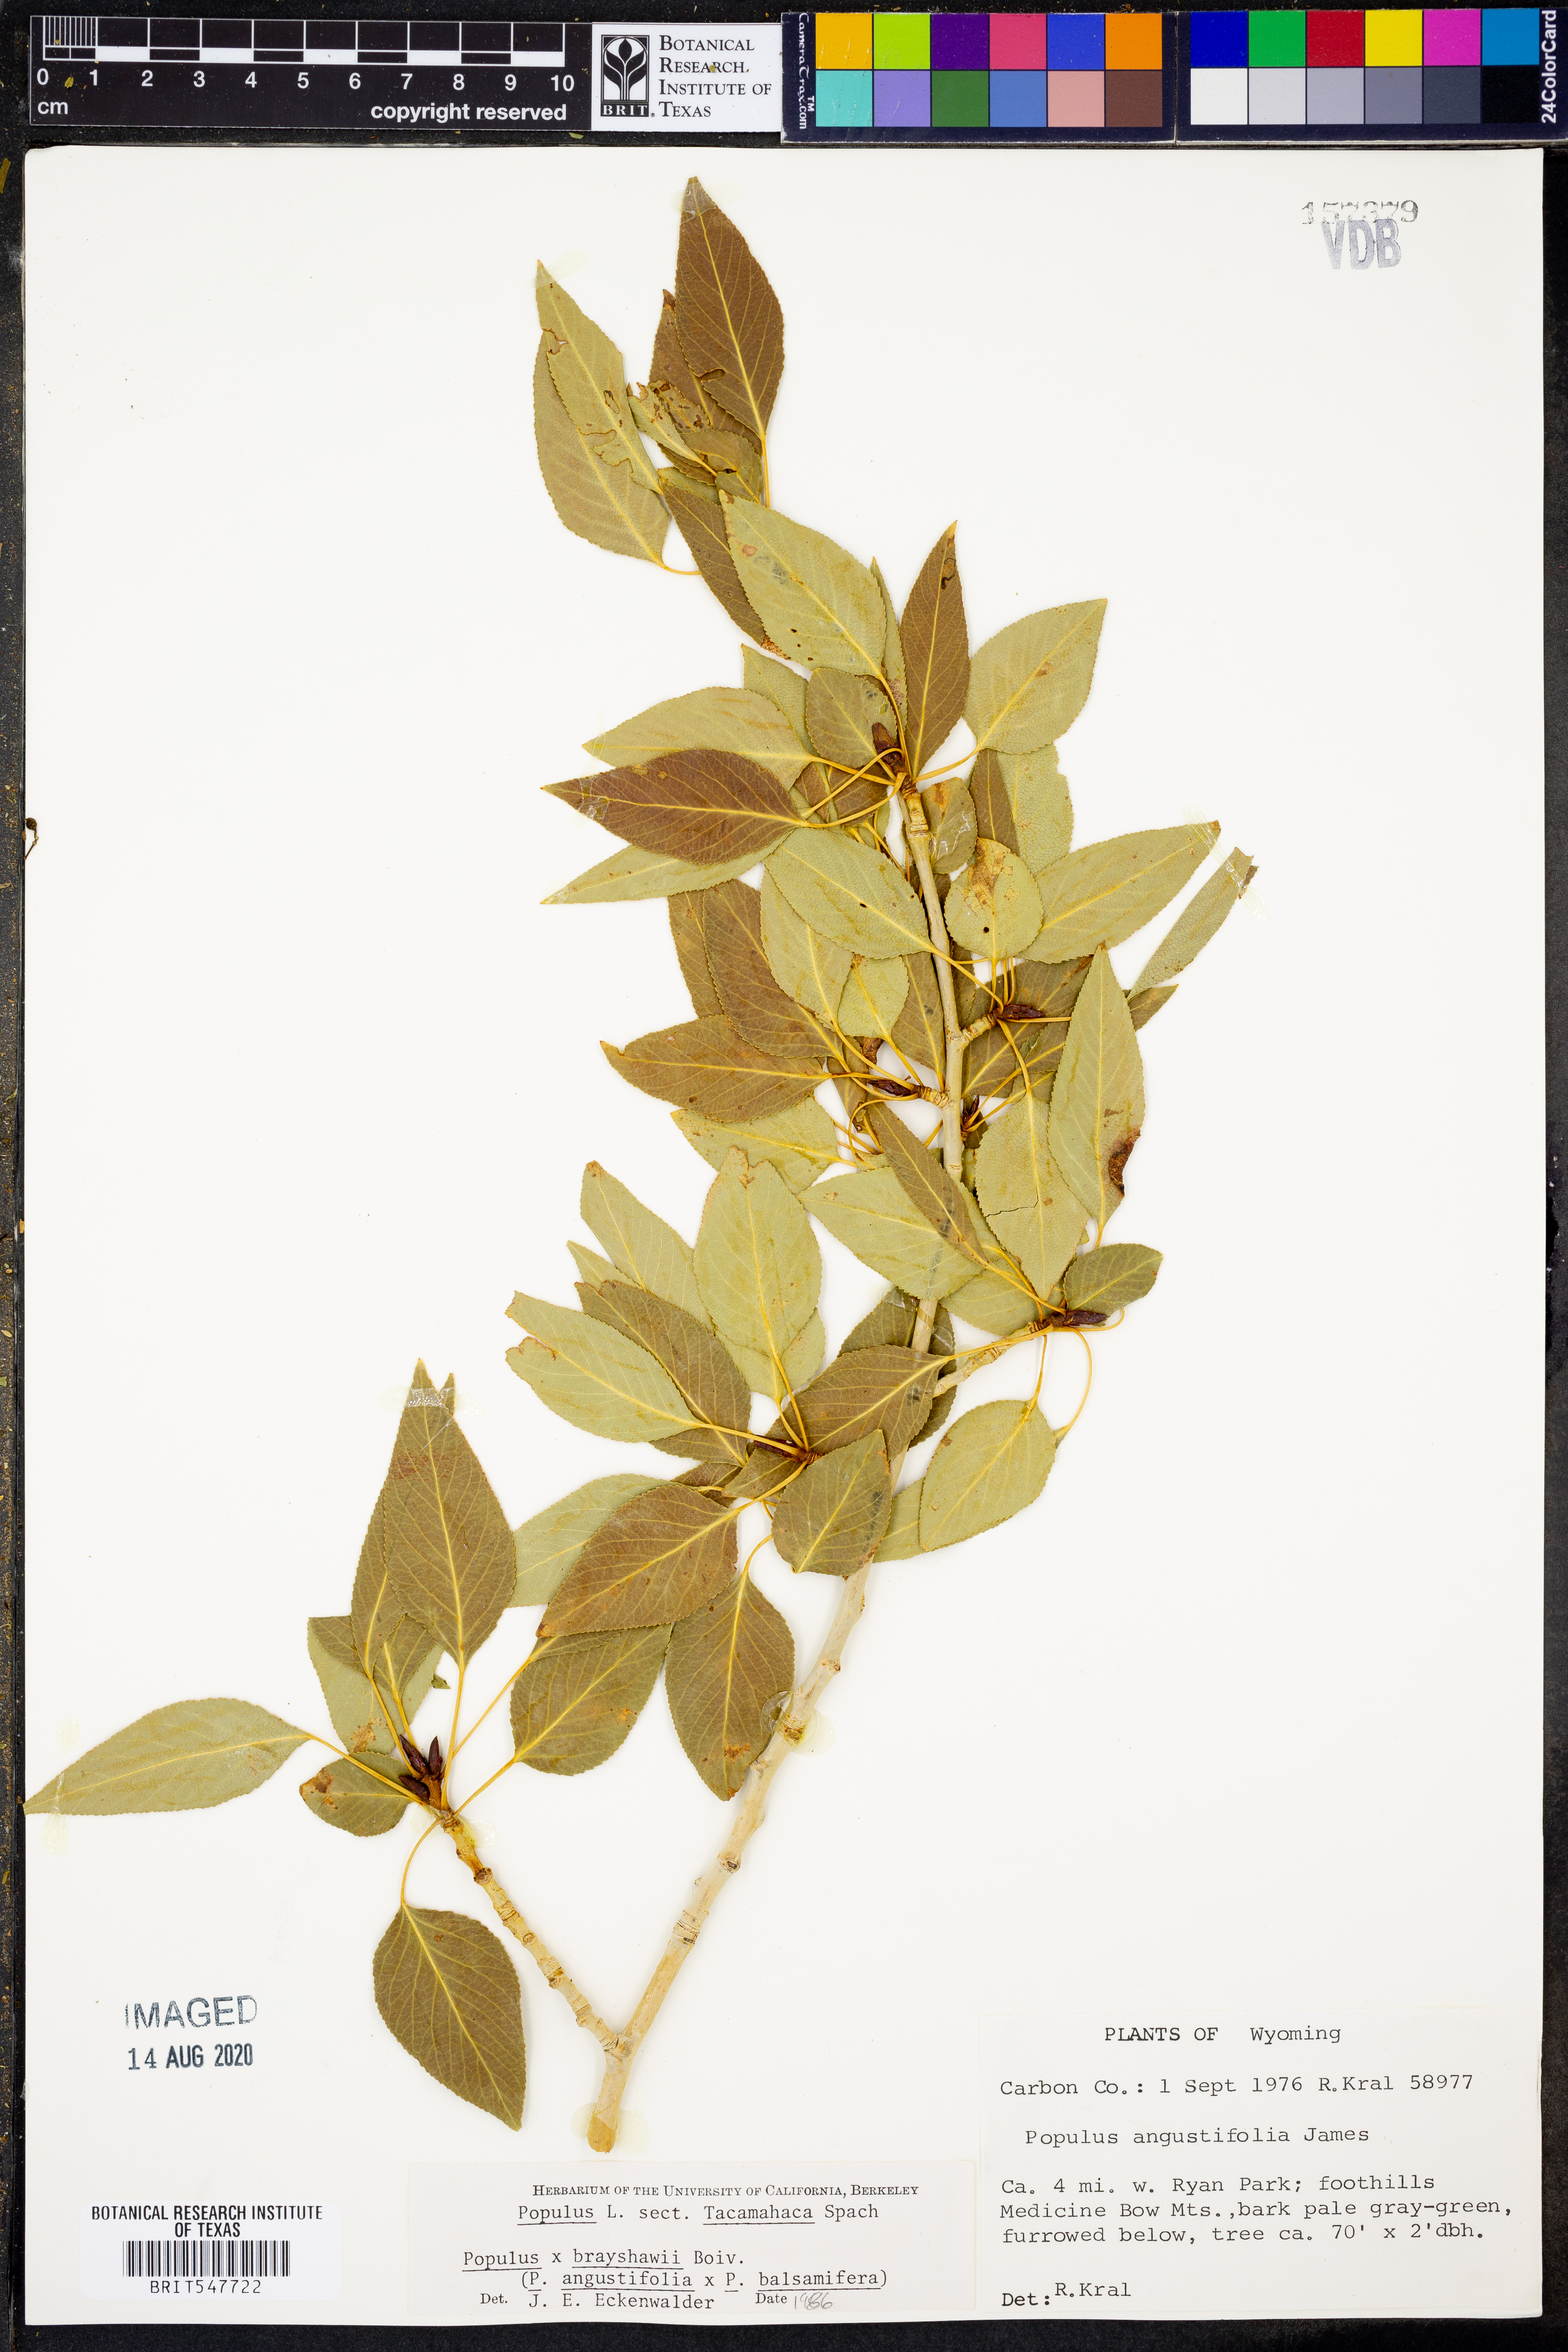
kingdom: Plantae
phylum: Tracheophyta
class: Magnoliopsida
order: Malpighiales
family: Salicaceae
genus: Populus
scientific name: Populus
